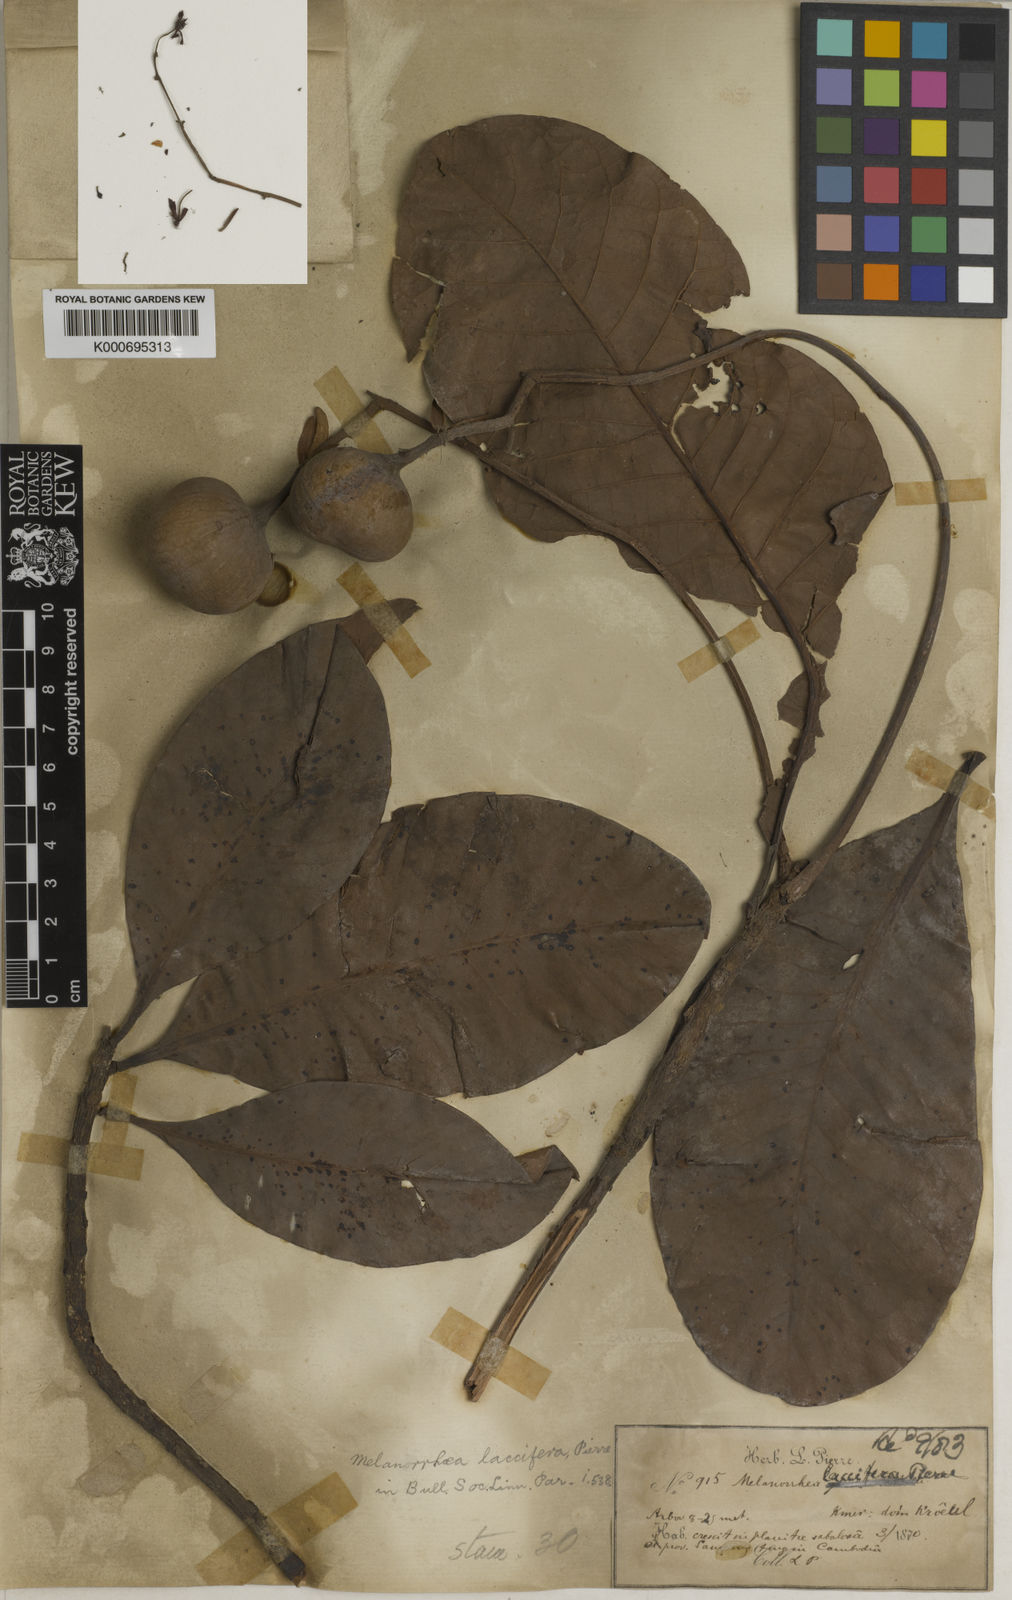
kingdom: Plantae
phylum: Tracheophyta
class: Magnoliopsida
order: Sapindales
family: Anacardiaceae
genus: Gluta
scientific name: Gluta laccifera
